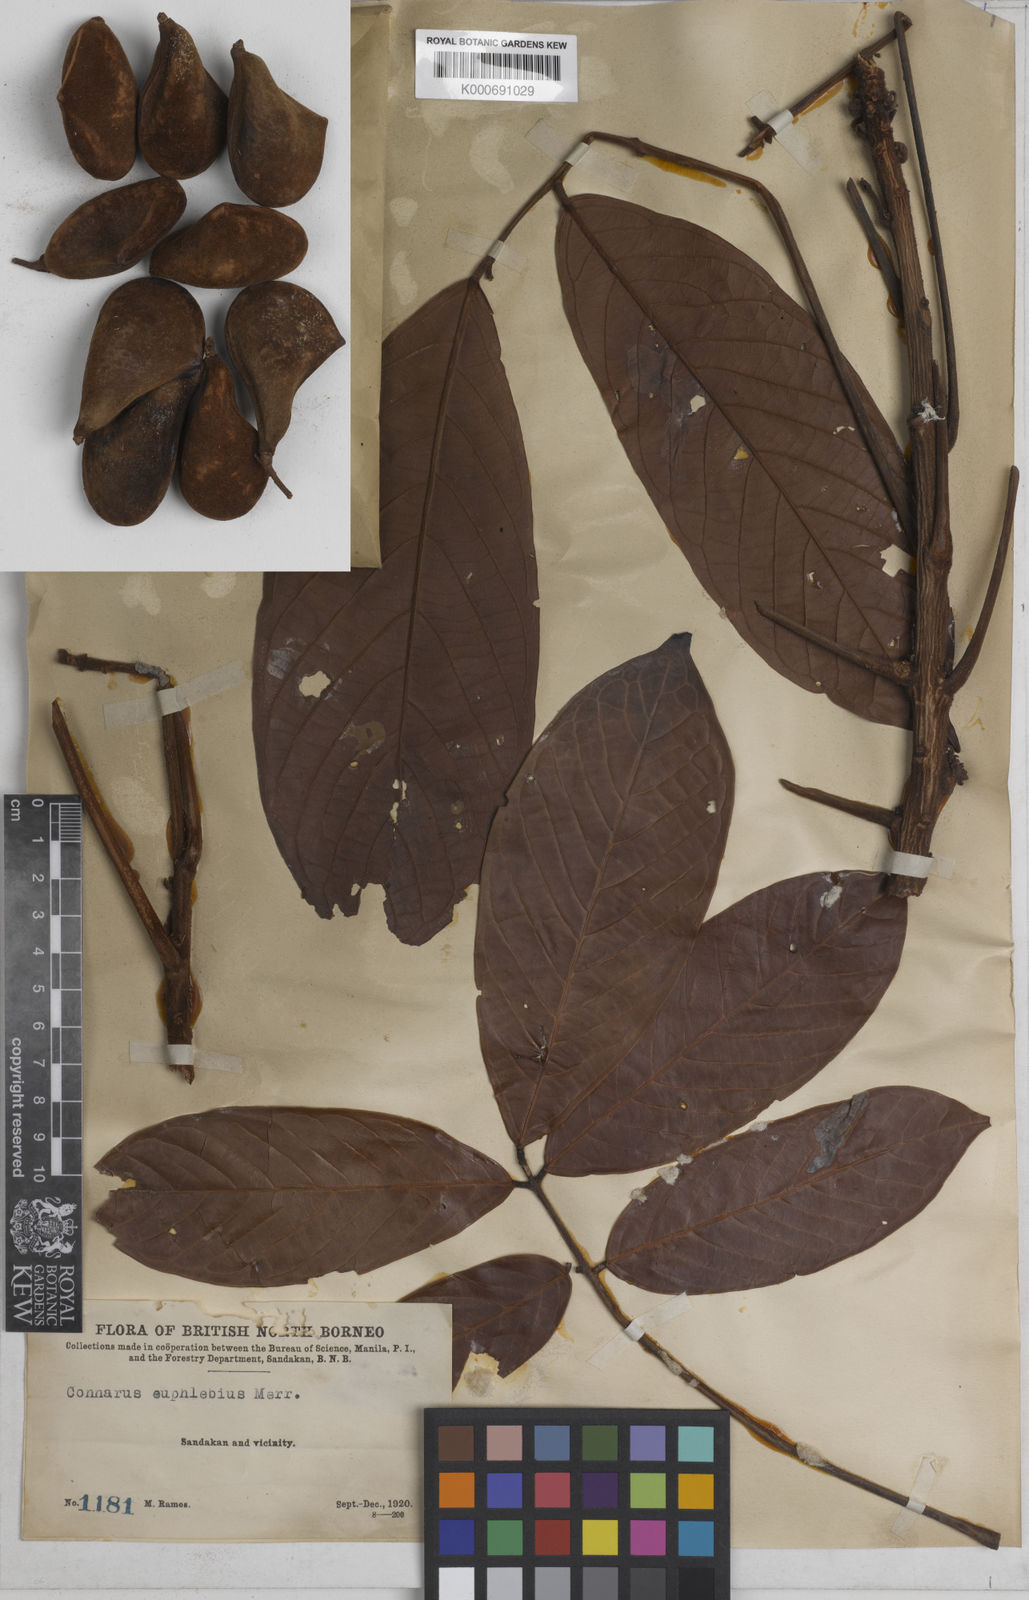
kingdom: Plantae
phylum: Tracheophyta
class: Magnoliopsida
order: Oxalidales
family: Connaraceae
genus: Connarus
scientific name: Connarus euphlebius
